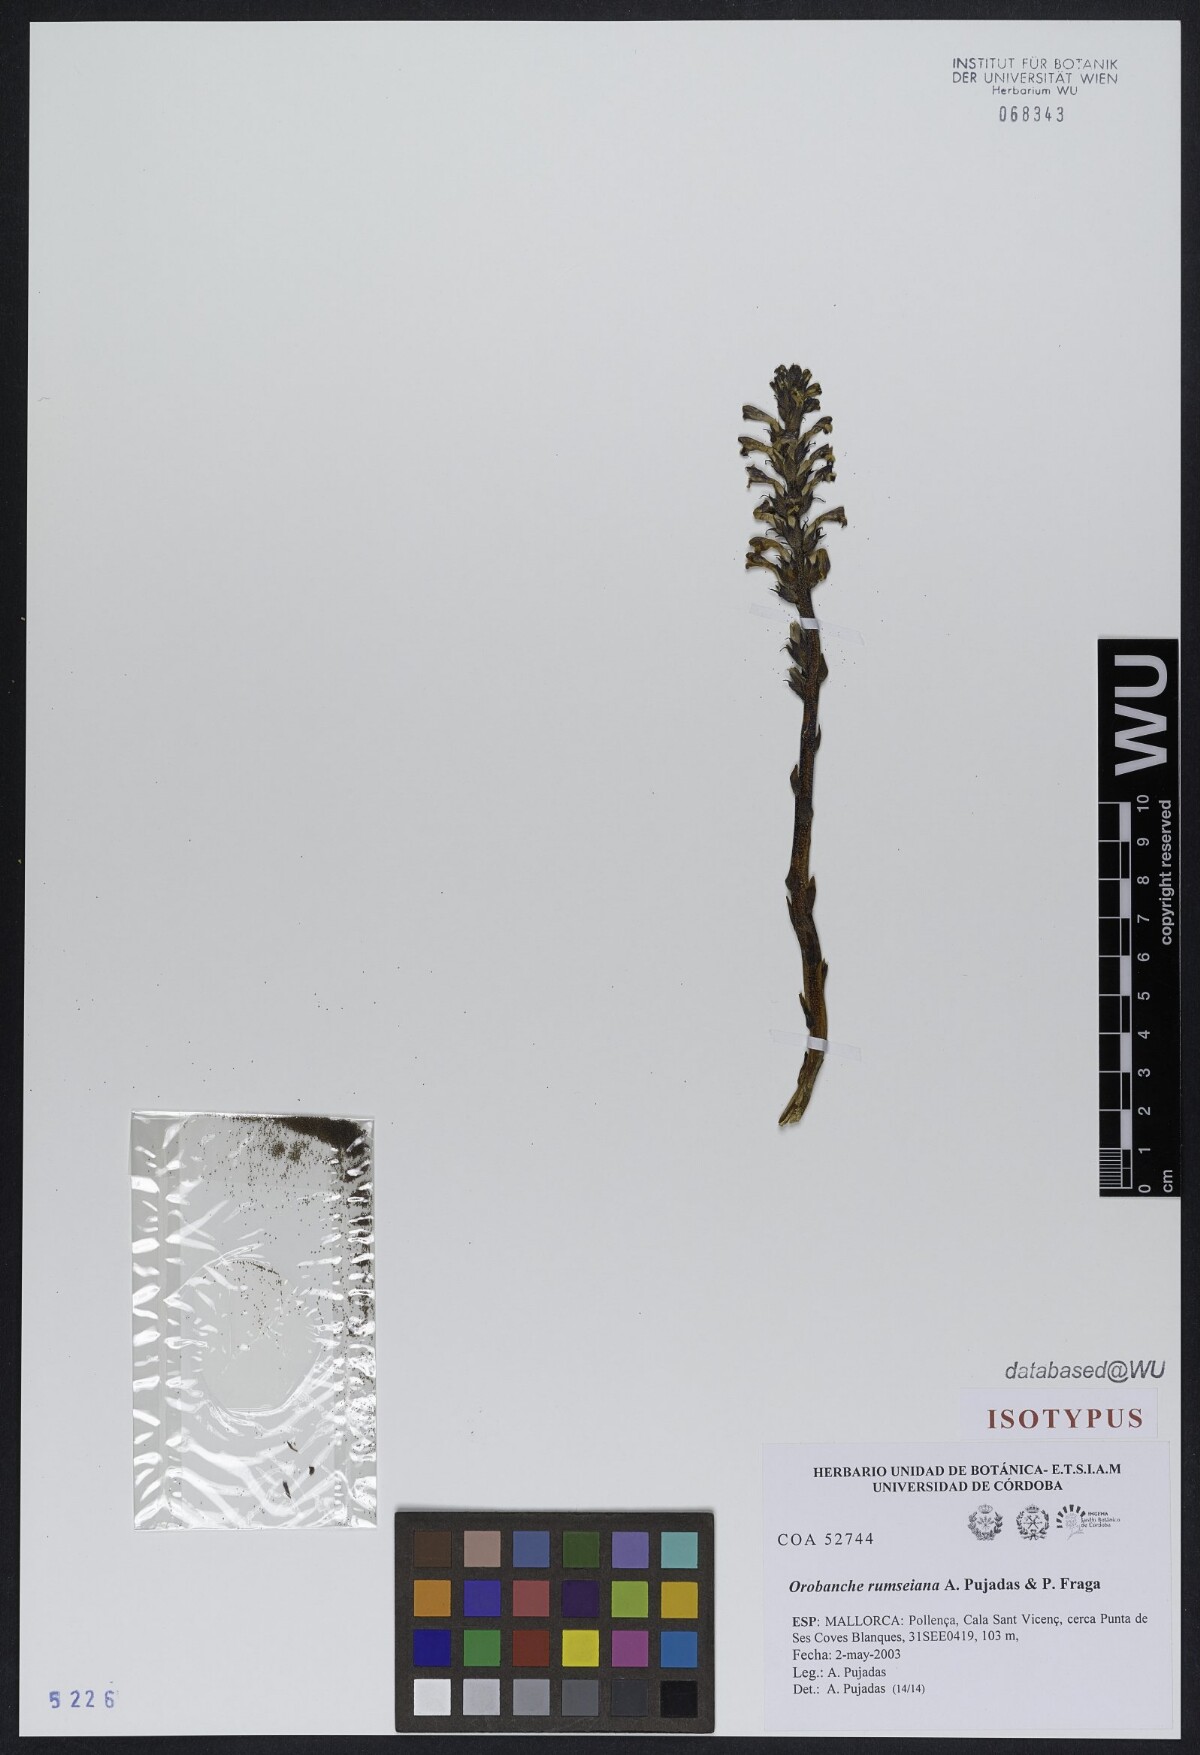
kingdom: Plantae
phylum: Tracheophyta
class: Magnoliopsida
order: Lamiales
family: Orobanchaceae
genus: Phelipanche
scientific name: Phelipanche rosmarina
